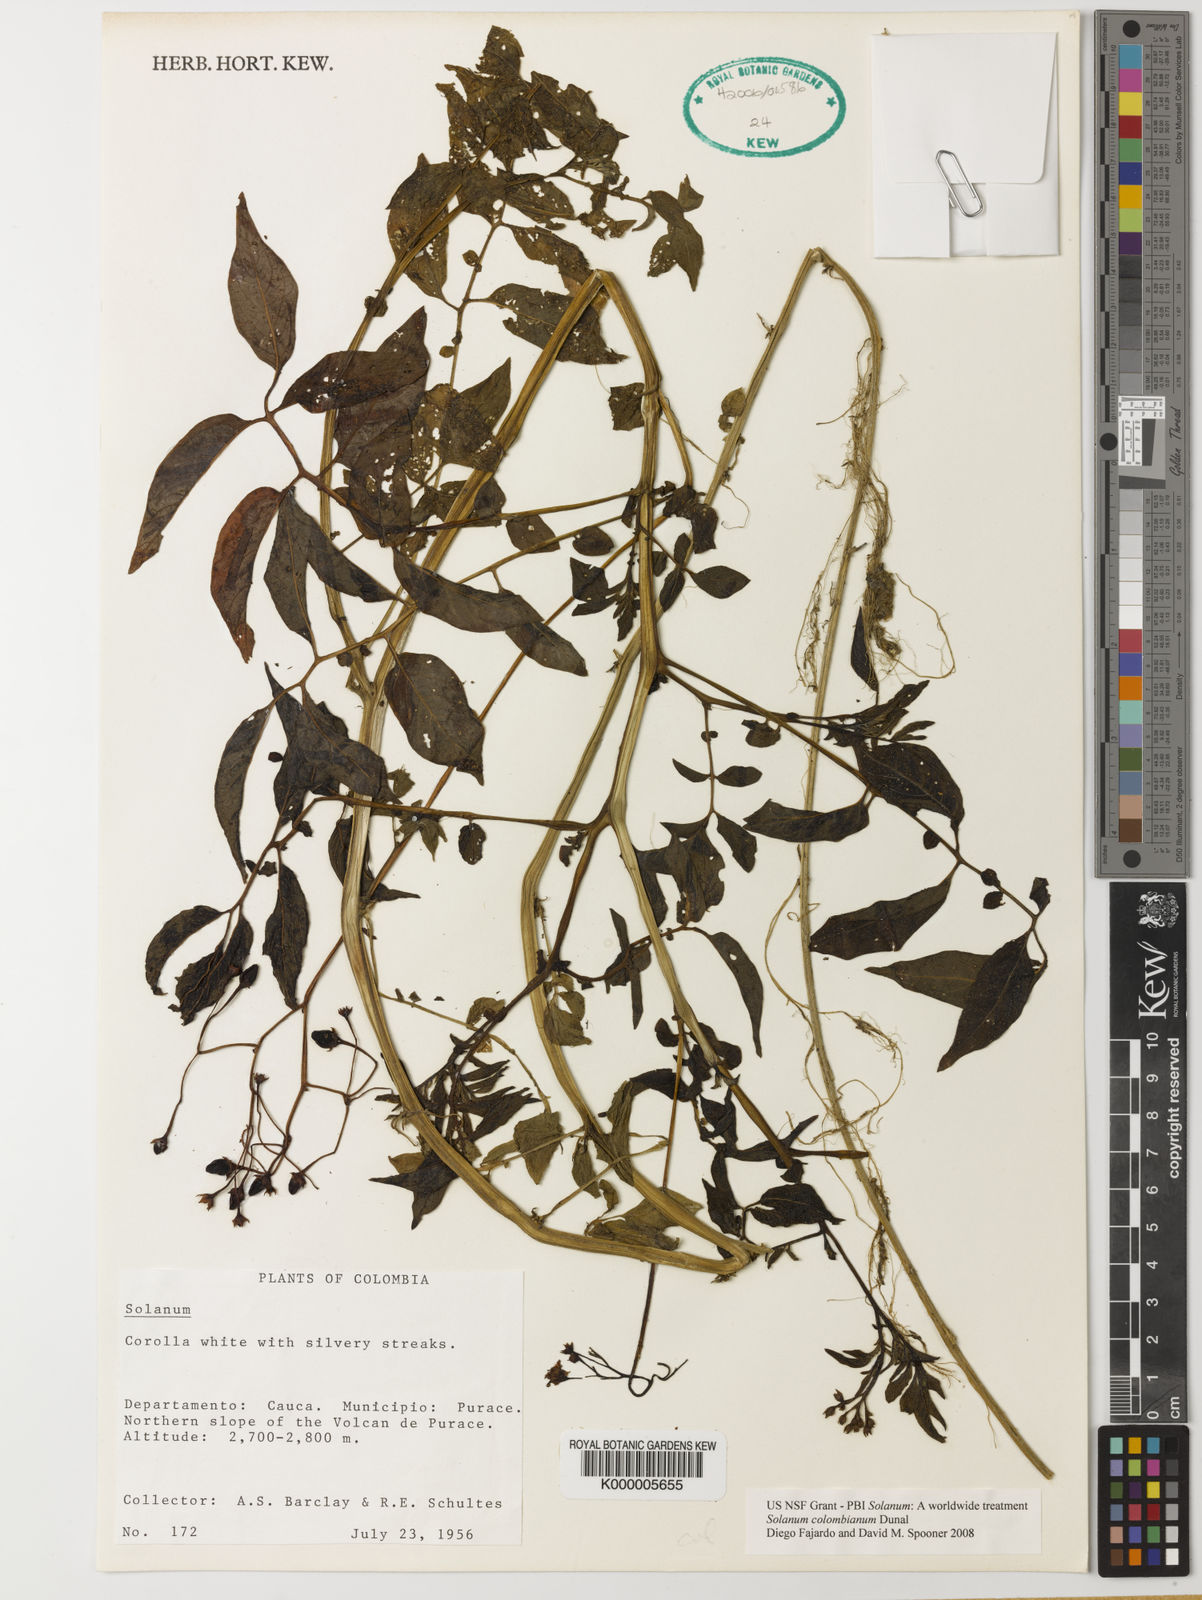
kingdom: Plantae
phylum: Tracheophyta
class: Magnoliopsida
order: Solanales
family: Solanaceae
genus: Solanum
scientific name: Solanum colombianum
